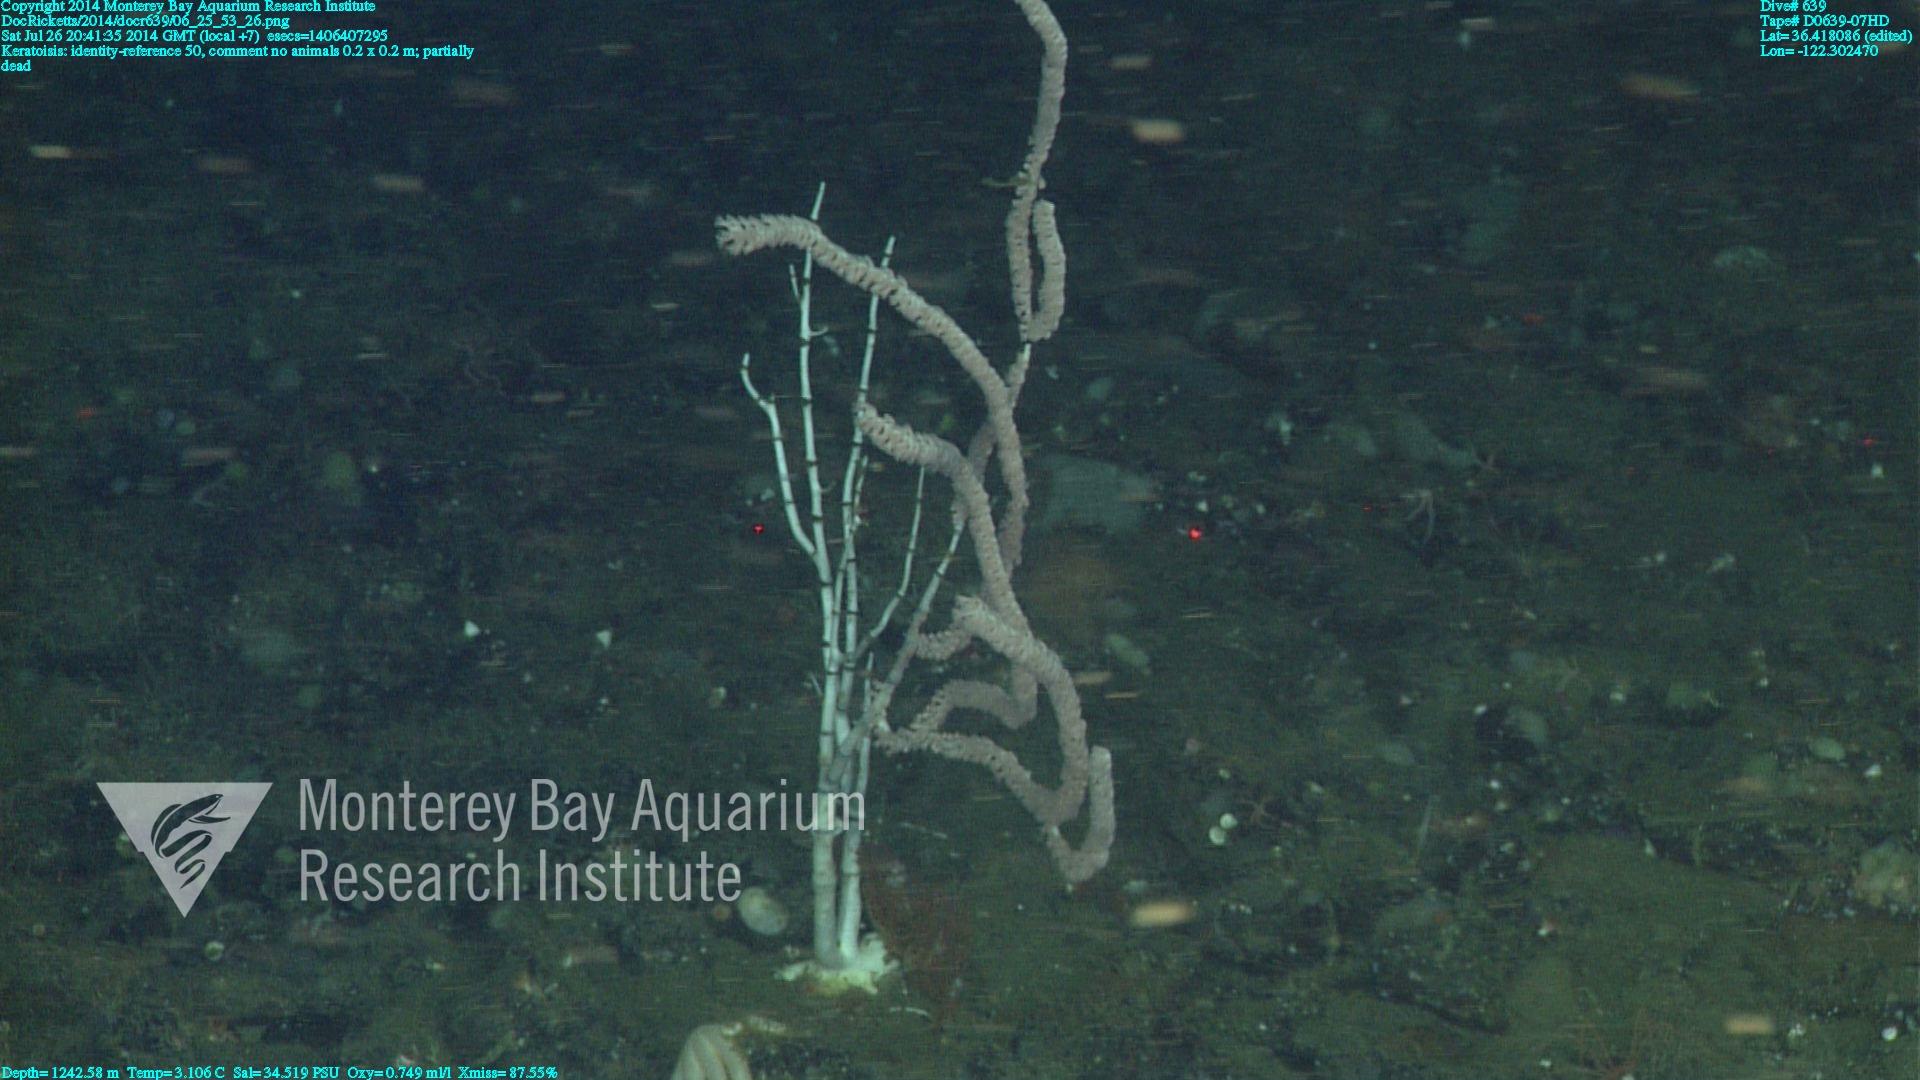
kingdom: Animalia
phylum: Cnidaria
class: Anthozoa
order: Scleralcyonacea
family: Keratoisididae
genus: Keratoisis
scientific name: Keratoisis
